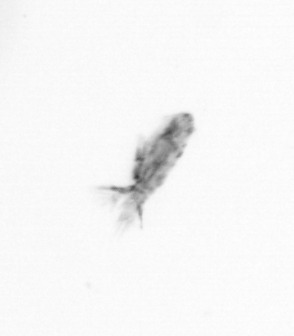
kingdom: Animalia
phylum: Arthropoda
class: Copepoda
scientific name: Copepoda
